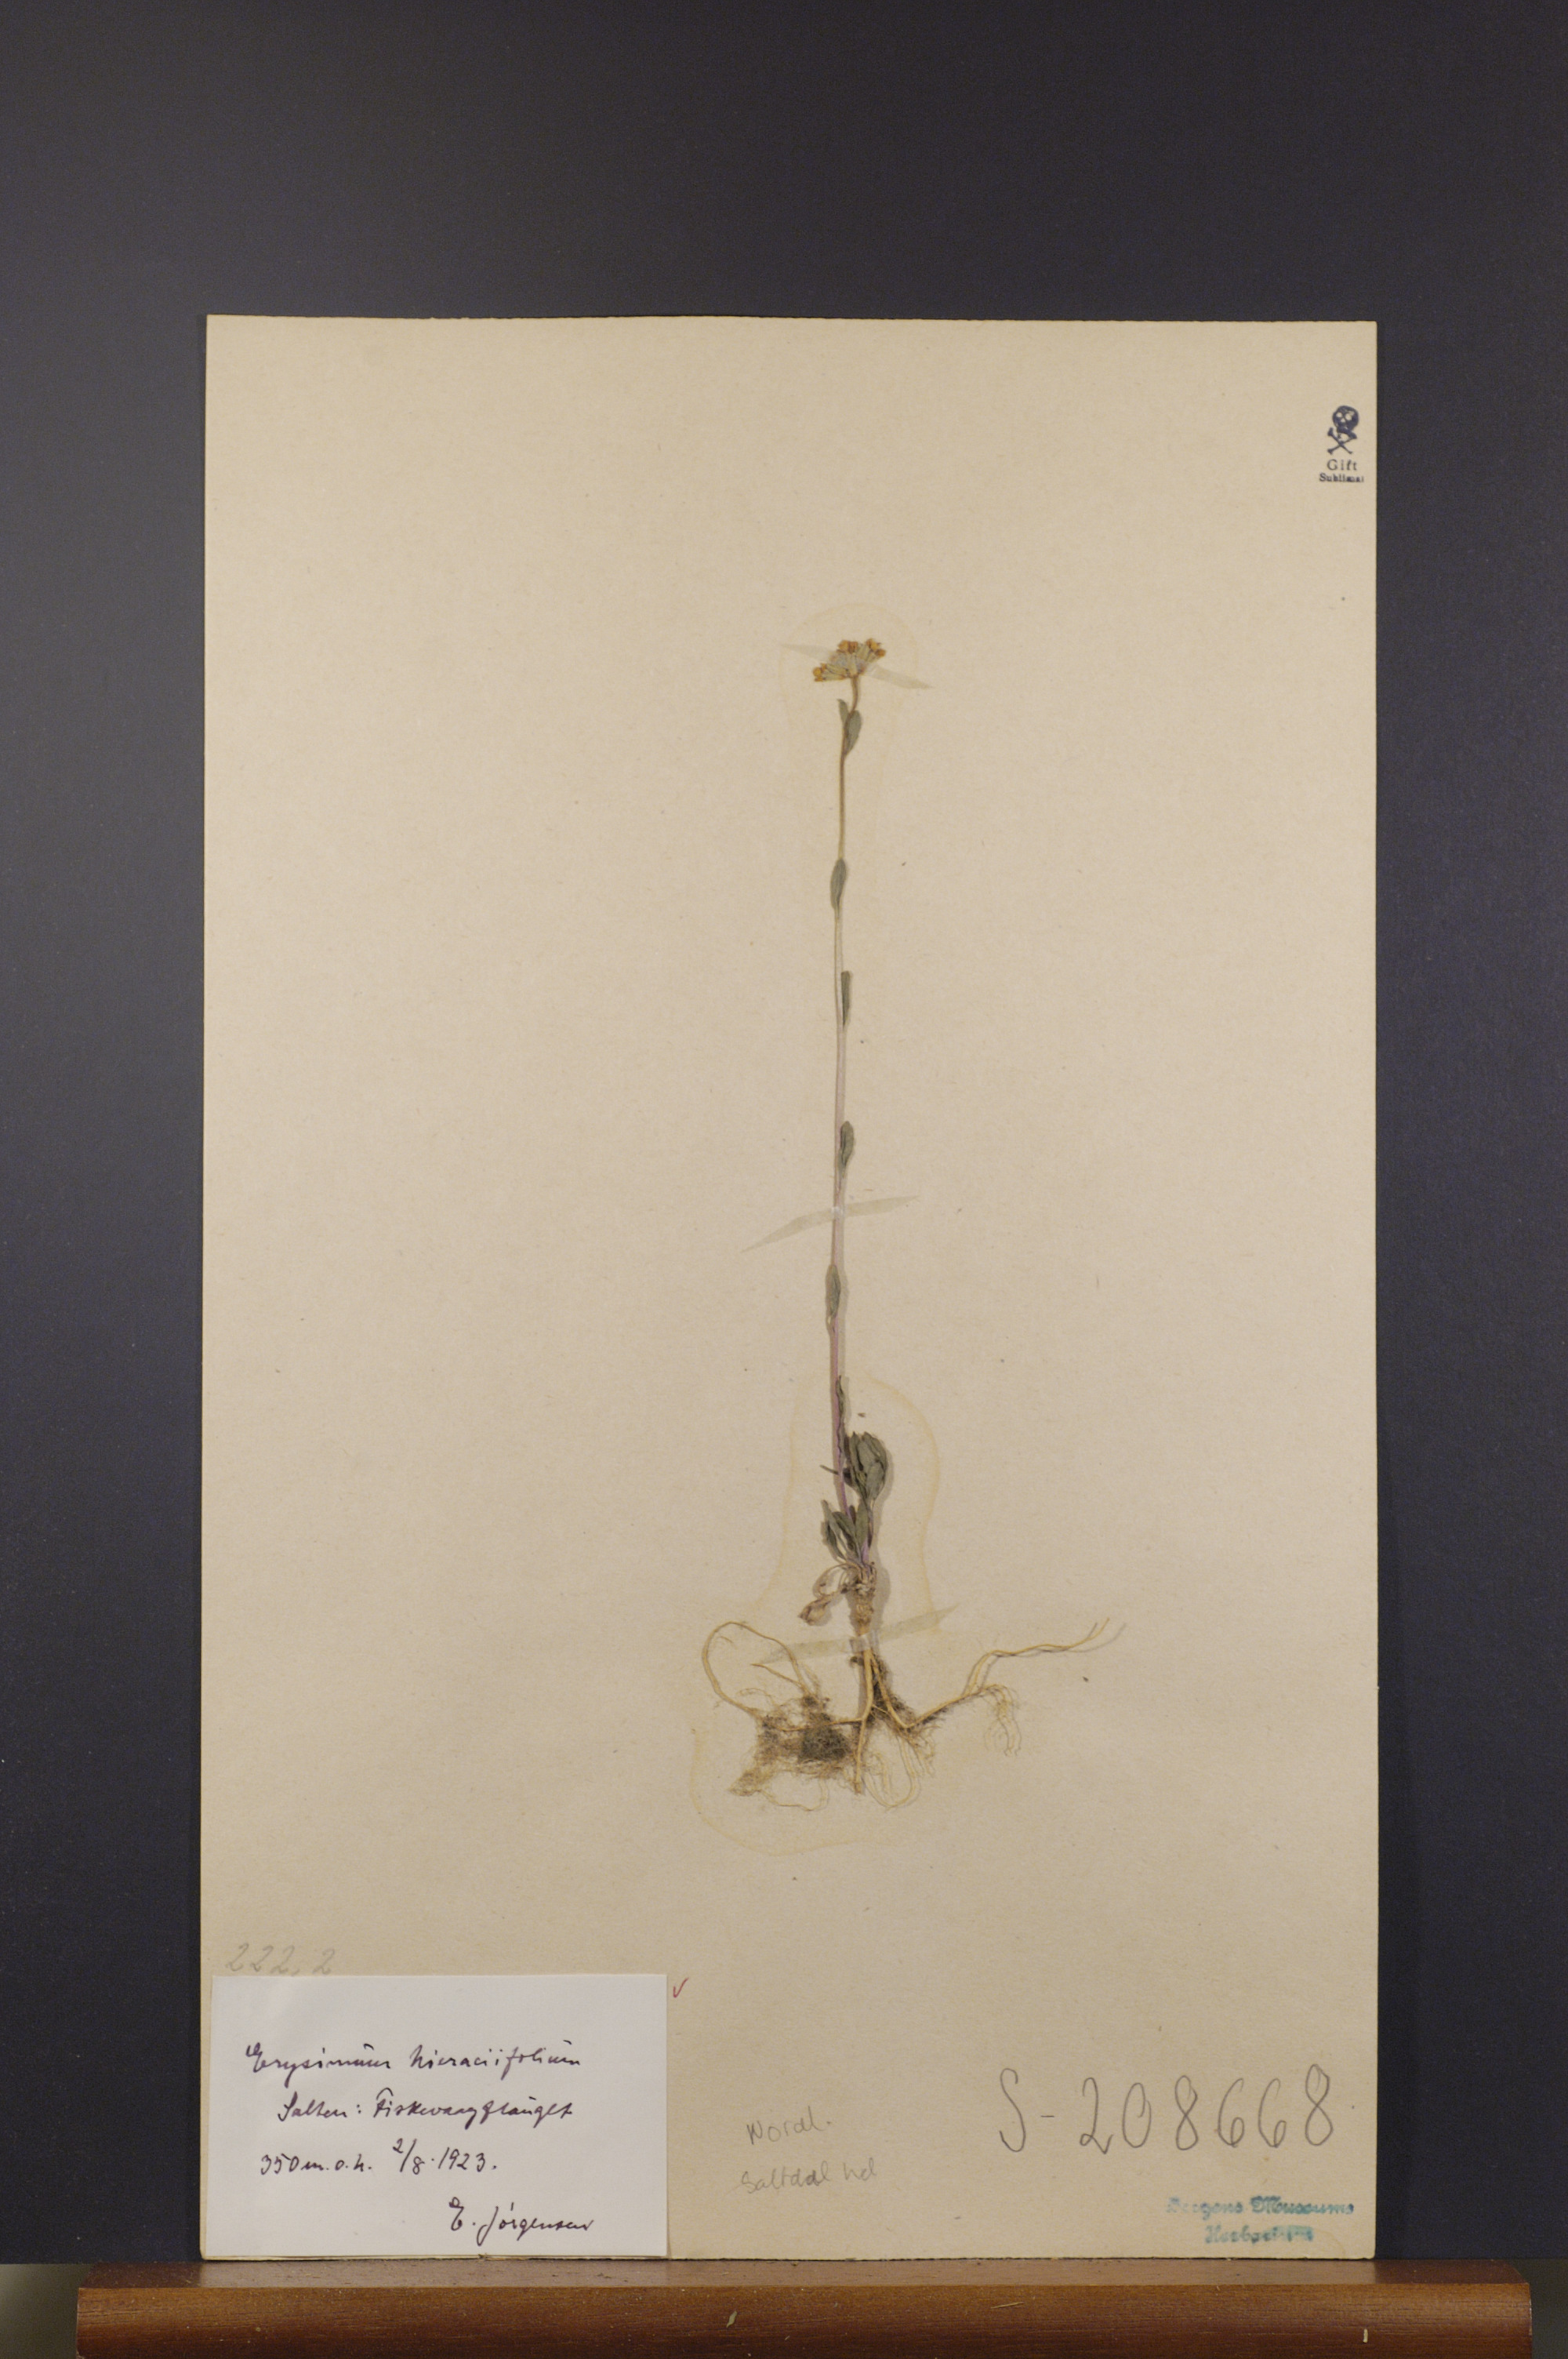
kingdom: Plantae
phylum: Tracheophyta
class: Magnoliopsida
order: Brassicales
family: Brassicaceae
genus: Erysimum
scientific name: Erysimum hieraciifolium
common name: European wallflower
